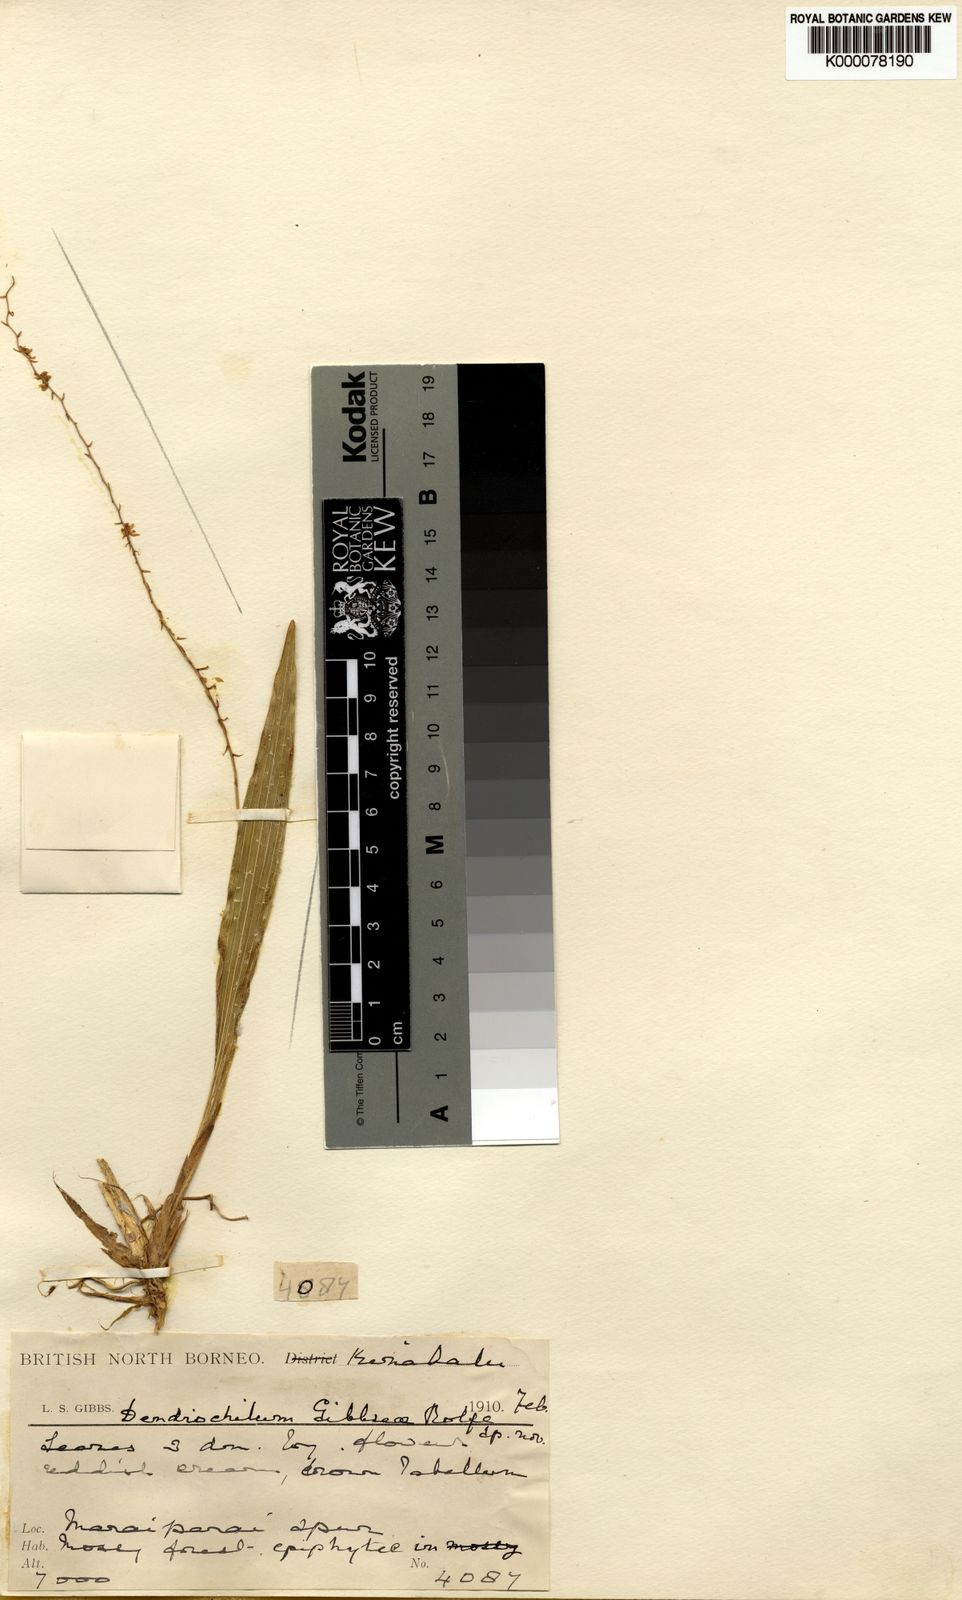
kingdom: Plantae
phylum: Tracheophyta
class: Liliopsida
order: Asparagales
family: Orchidaceae
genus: Coelogyne
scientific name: Coelogyne gibbsiae
